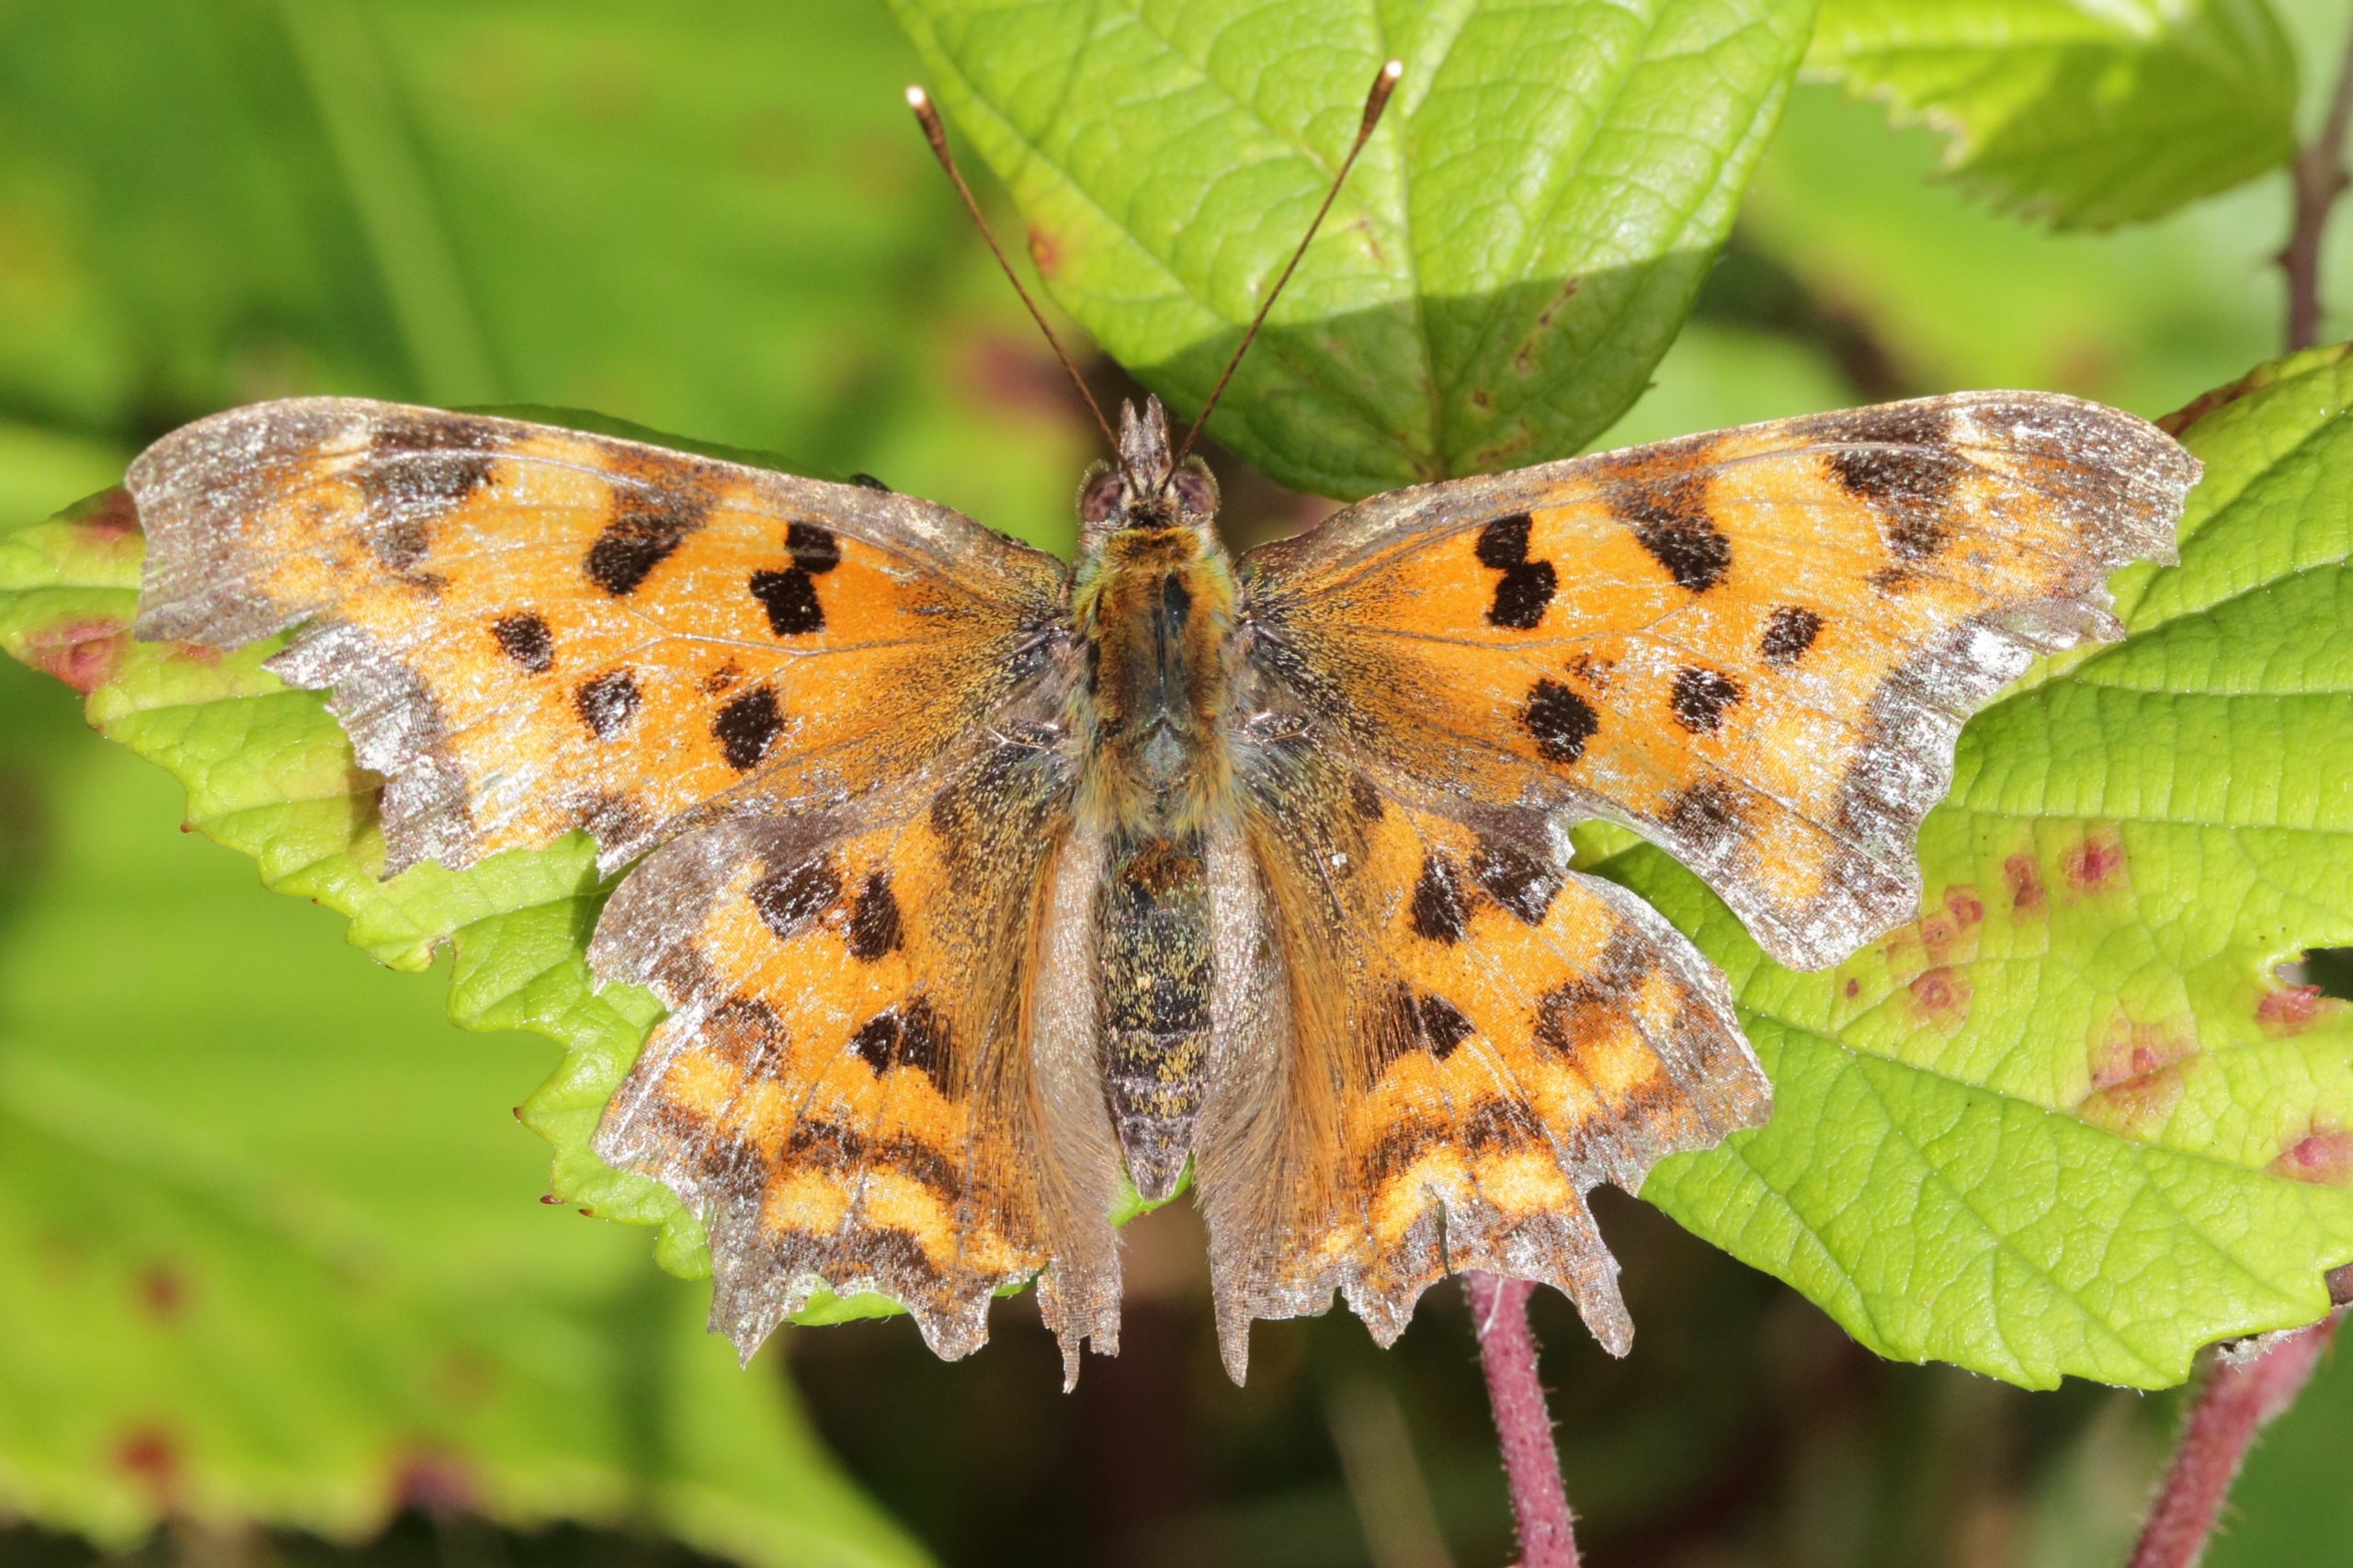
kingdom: Animalia
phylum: Arthropoda
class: Insecta
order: Lepidoptera
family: Nymphalidae
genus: Polygonia
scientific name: Polygonia c-album
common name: Det hvide C
